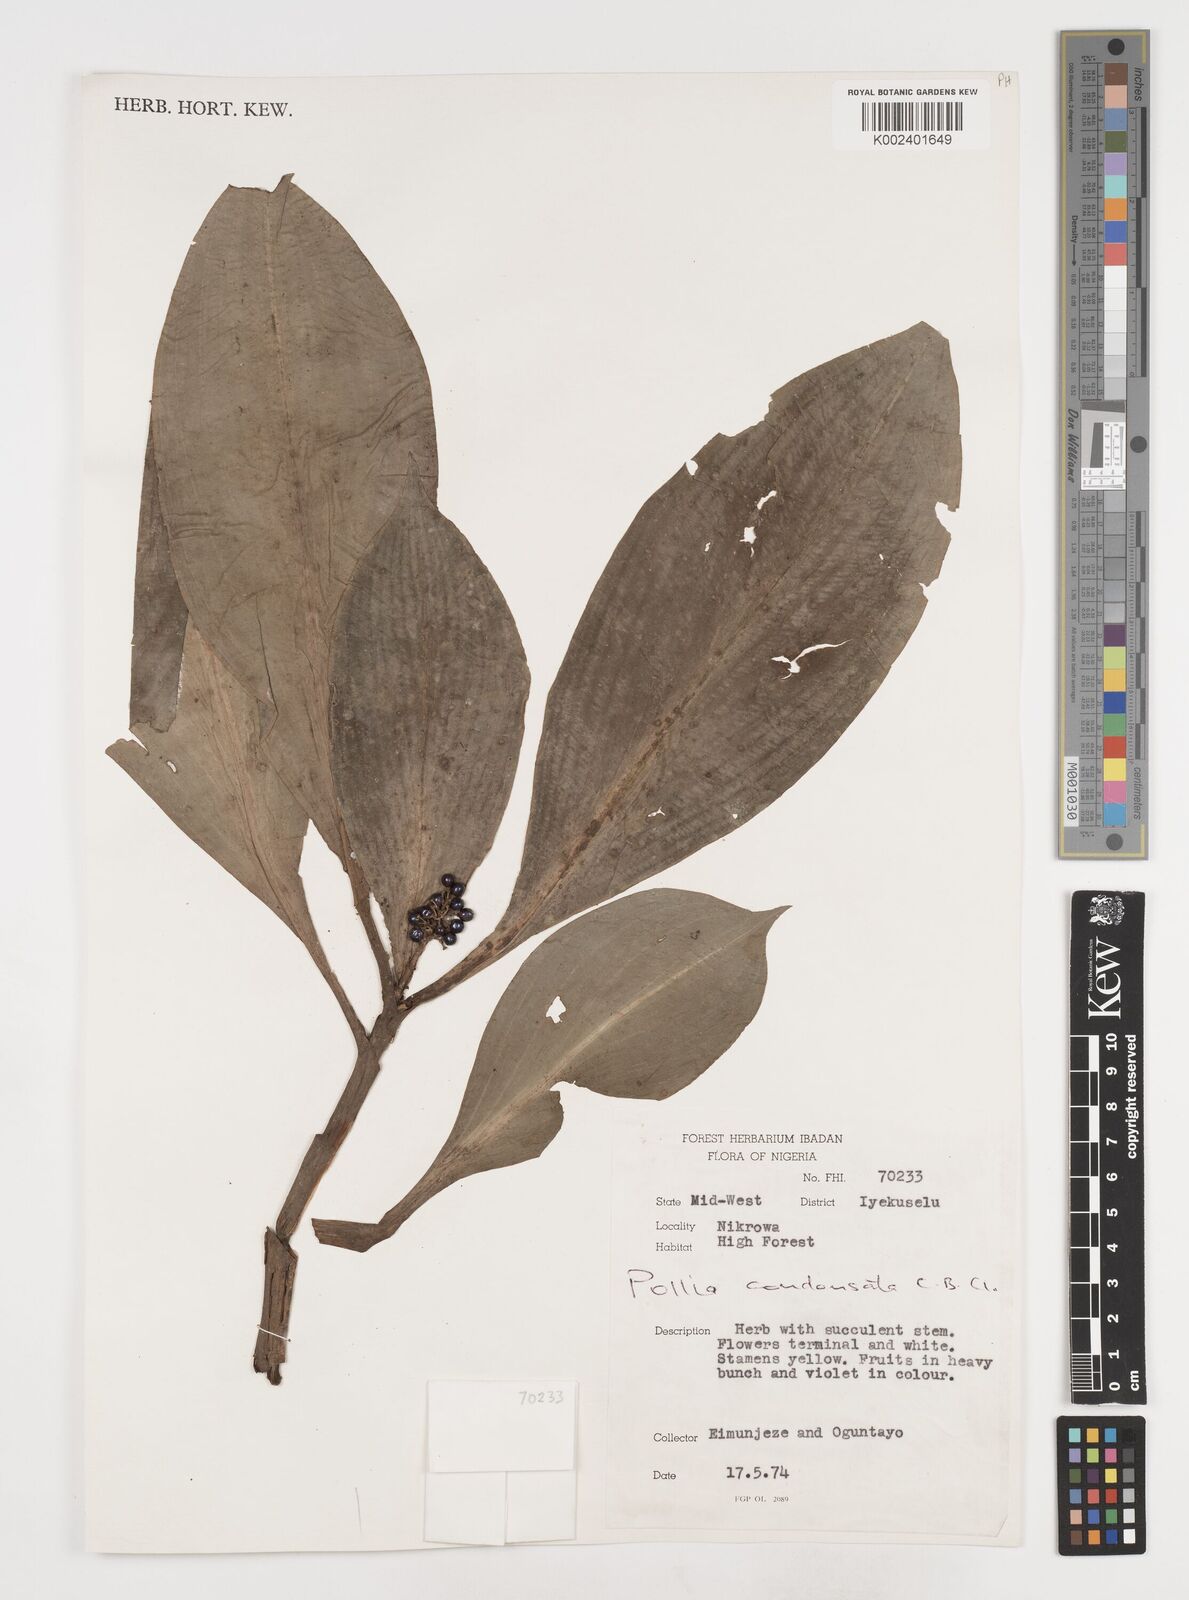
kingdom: Plantae
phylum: Tracheophyta
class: Liliopsida
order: Commelinales
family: Commelinaceae
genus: Pollia
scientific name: Pollia condensata
